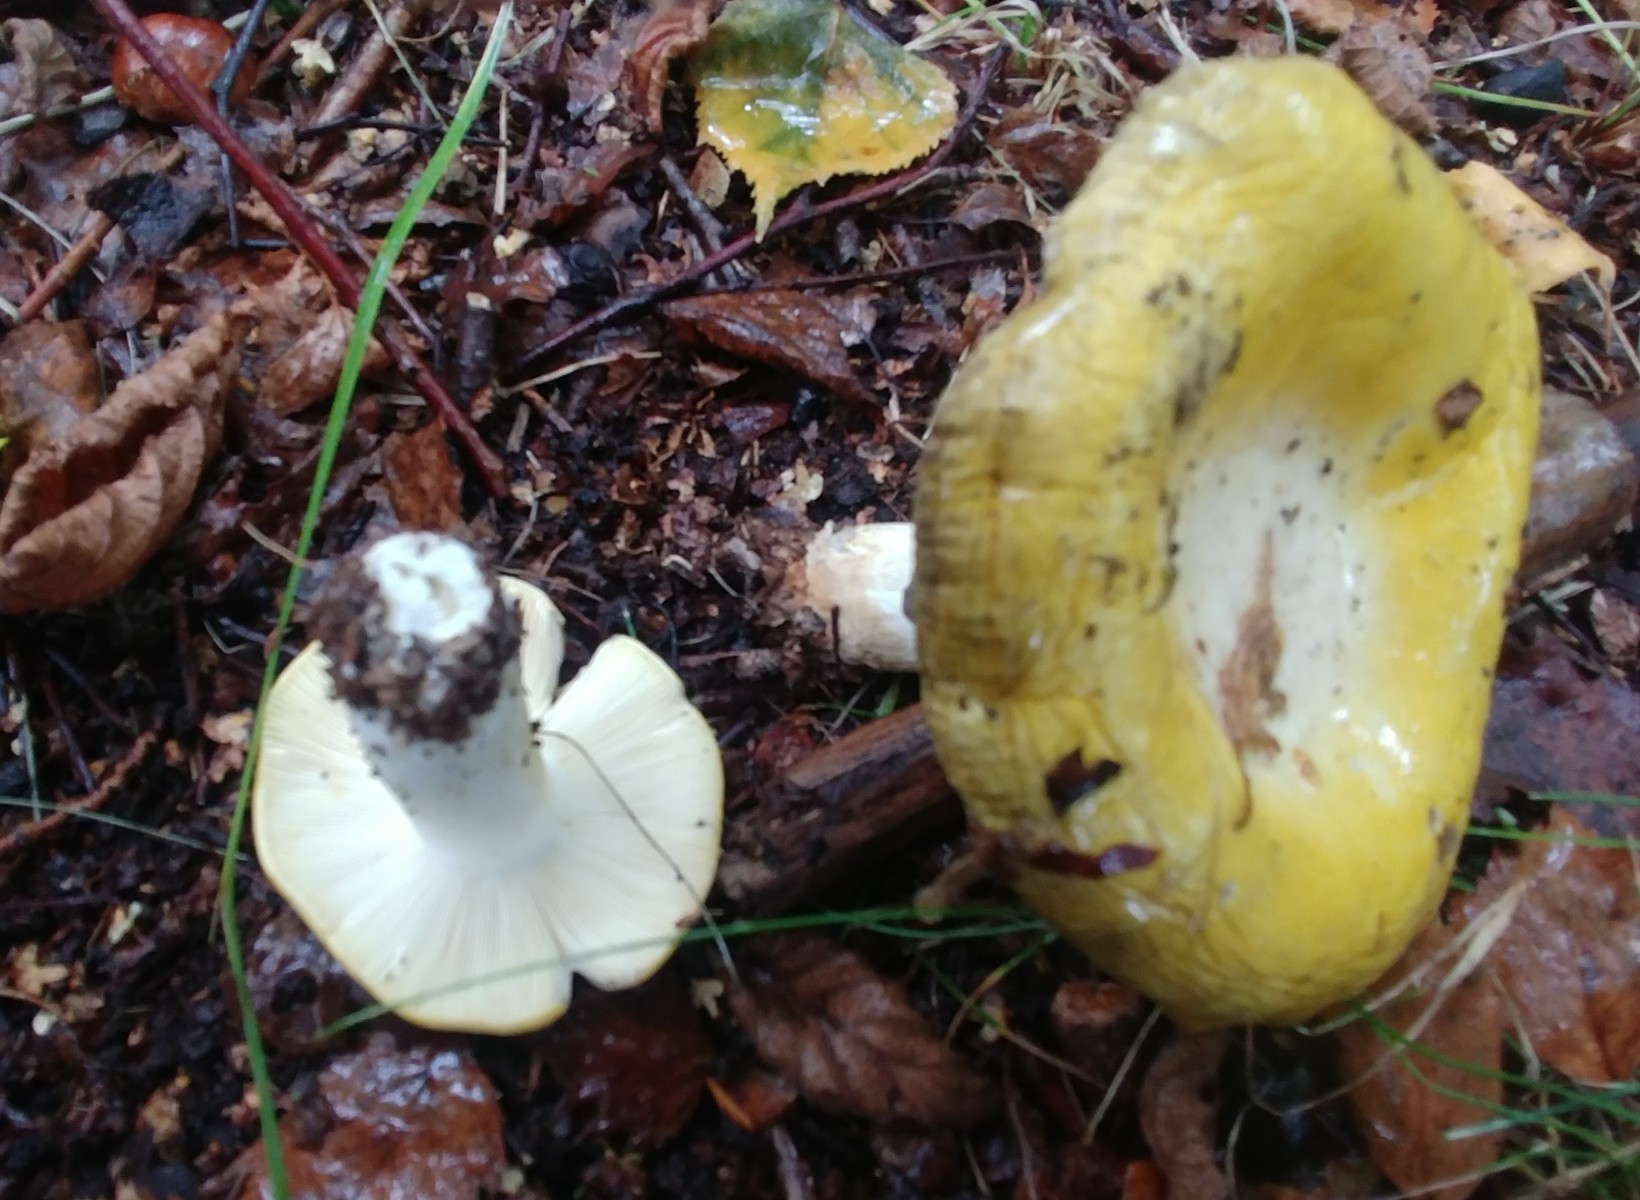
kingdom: Fungi
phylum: Basidiomycota
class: Agaricomycetes
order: Russulales
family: Russulaceae
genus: Russula
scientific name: Russula claroflava
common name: birke-skørhat
